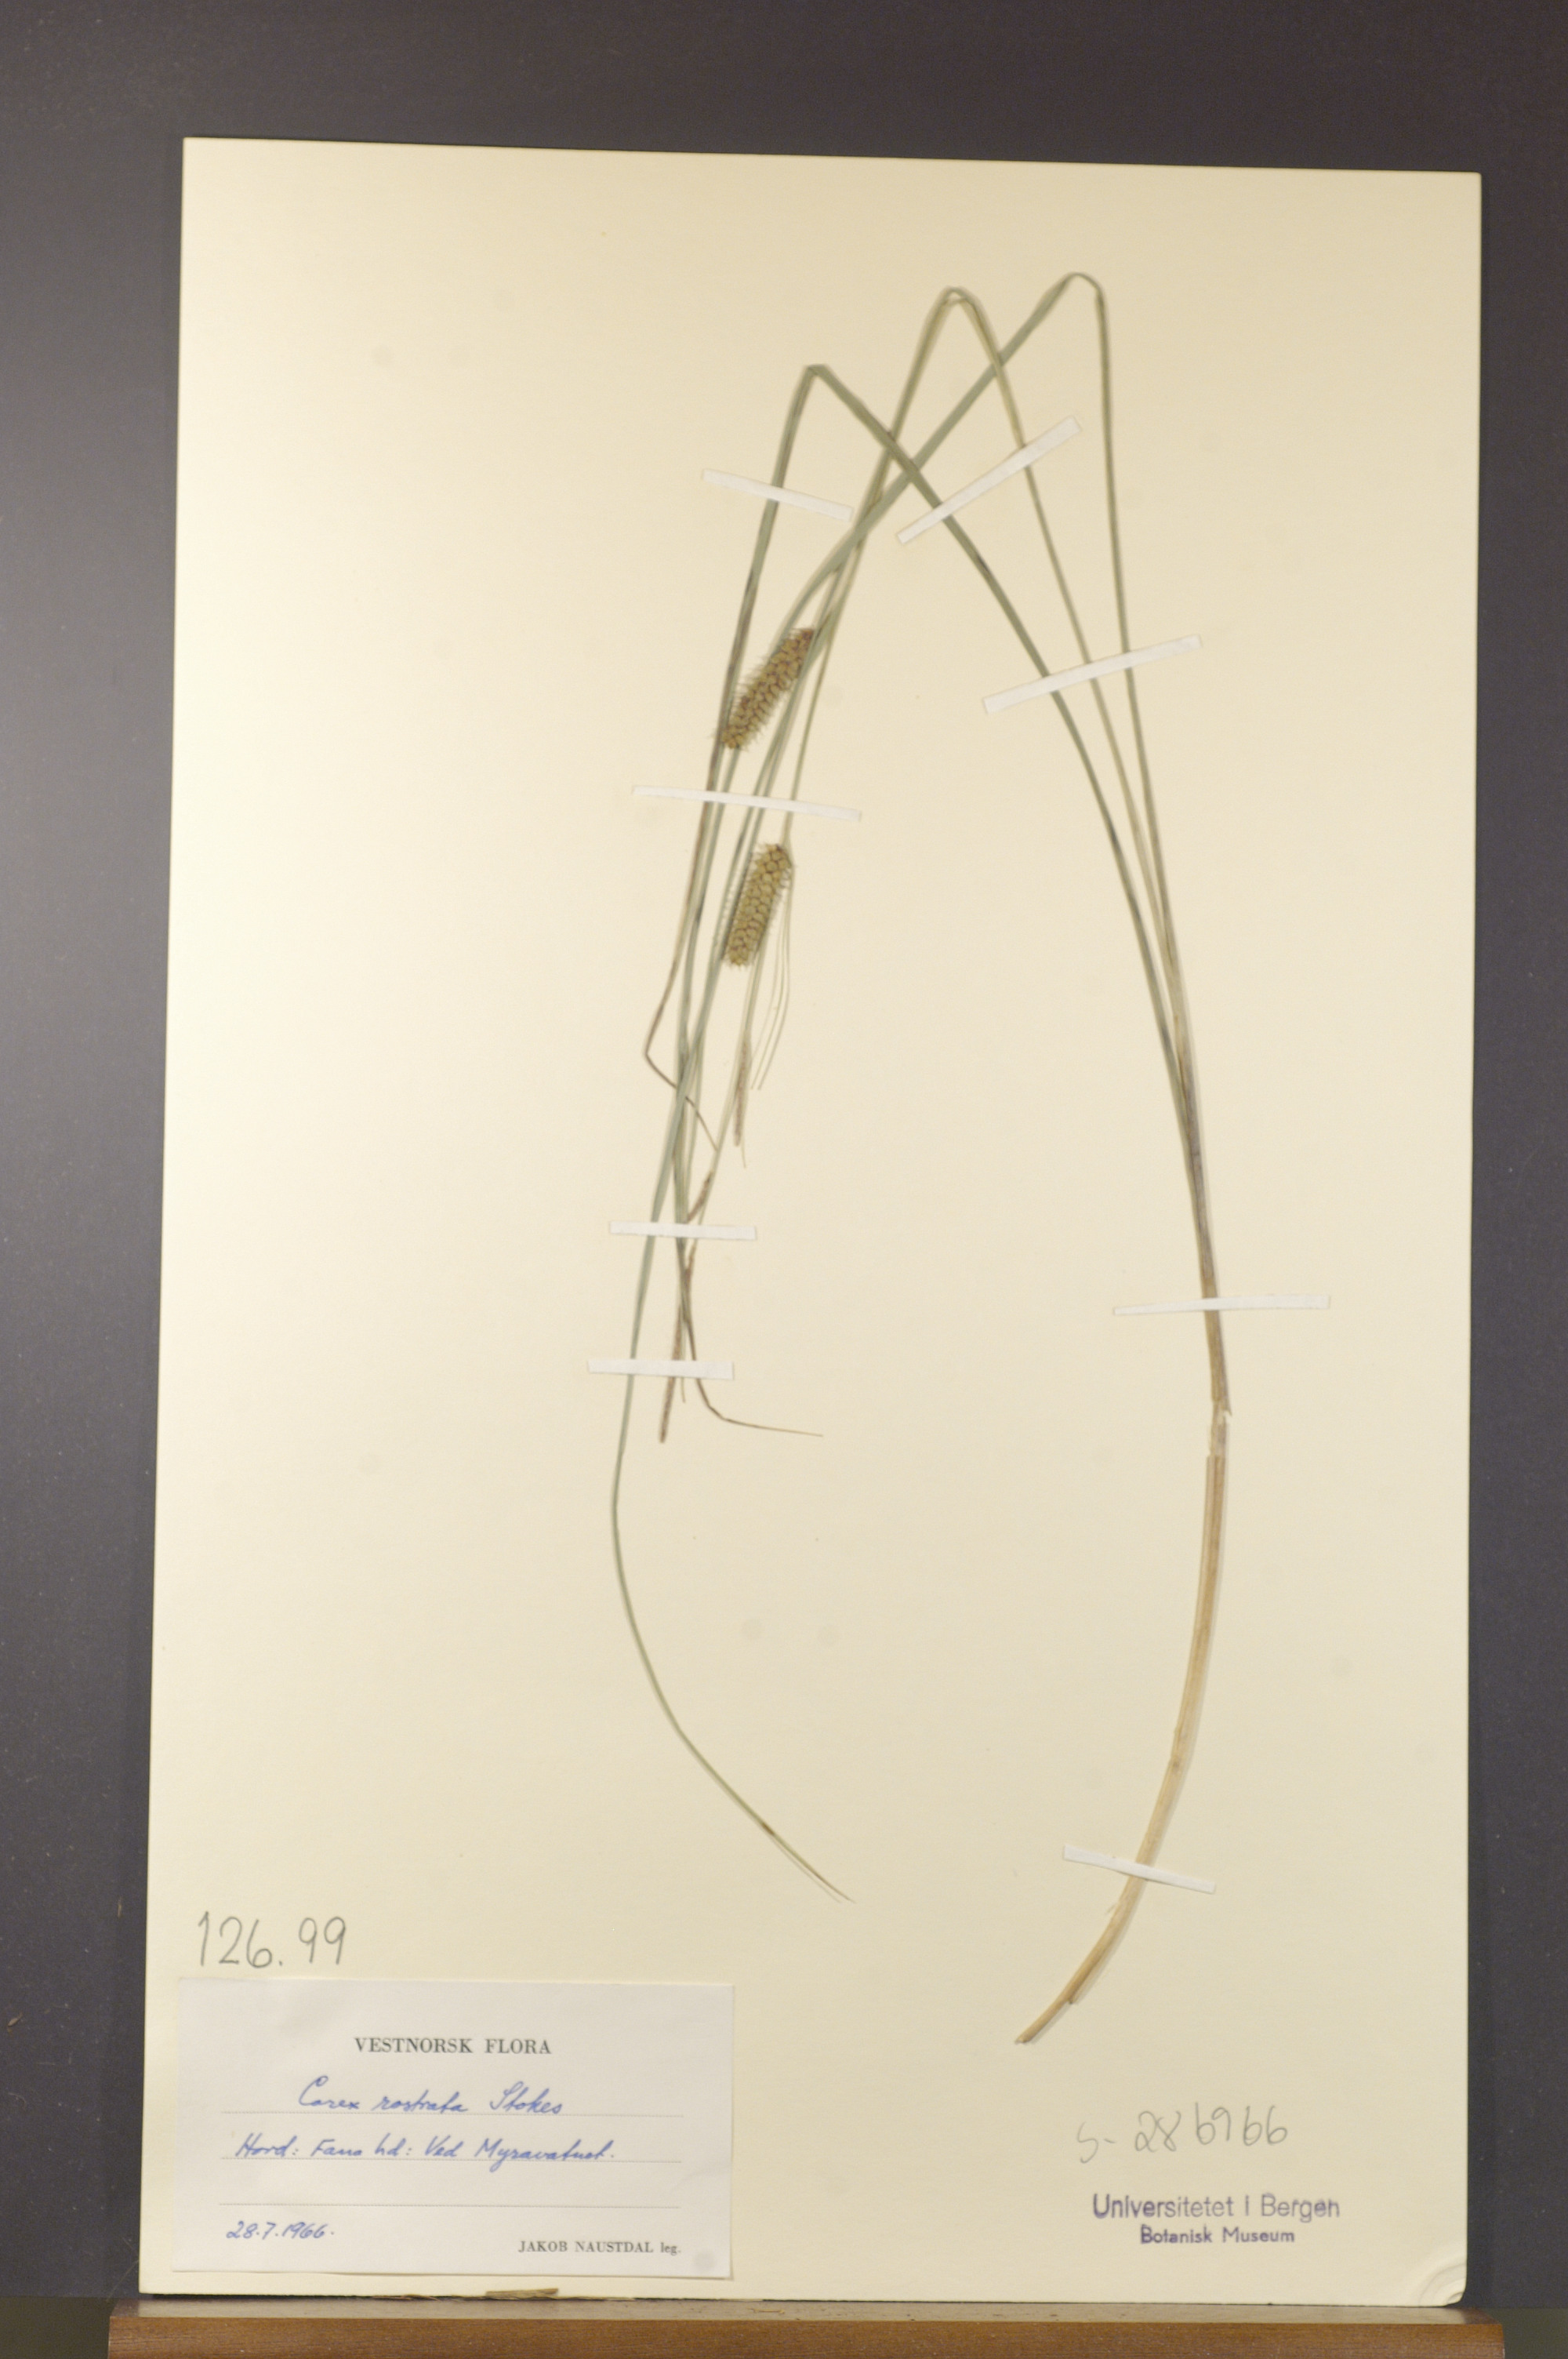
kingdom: Plantae
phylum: Tracheophyta
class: Liliopsida
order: Poales
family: Cyperaceae
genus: Carex
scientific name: Carex rostrata
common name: Bottle sedge
